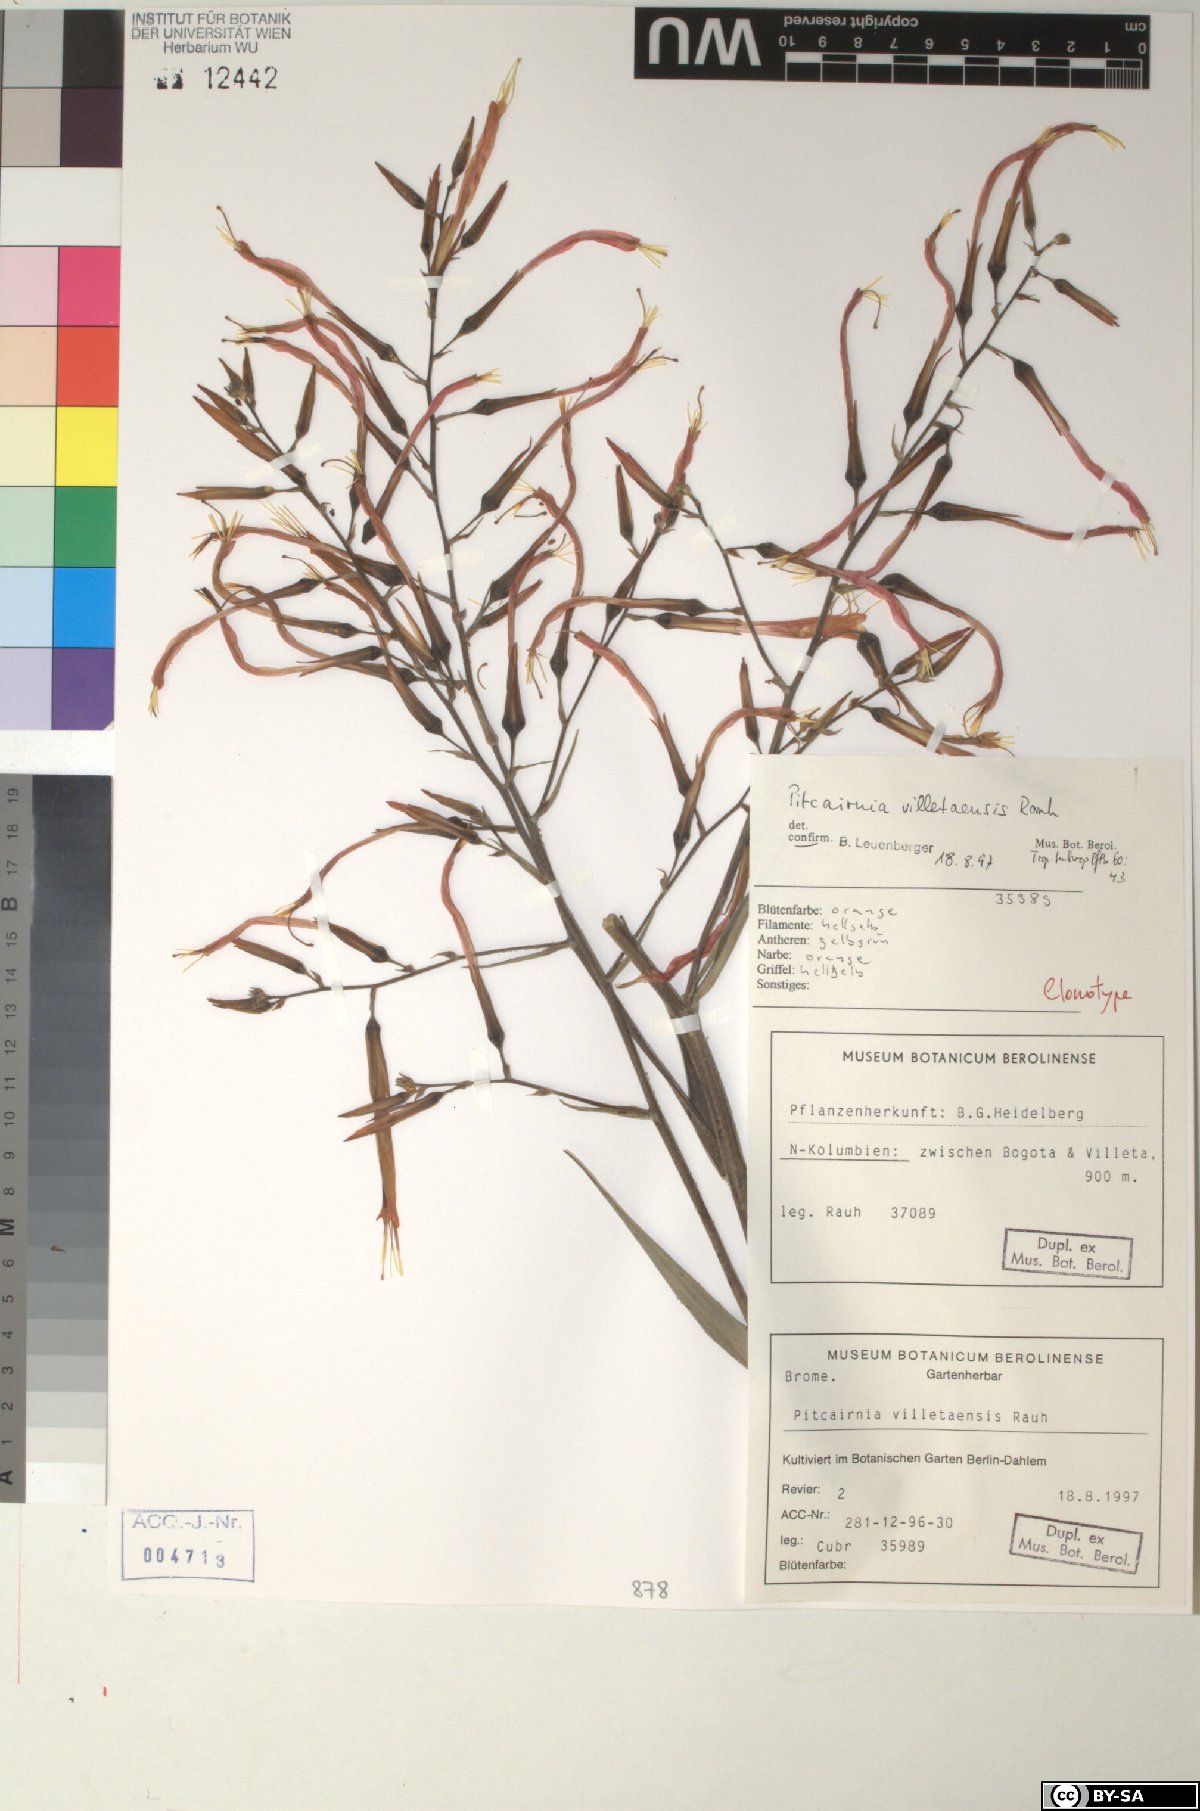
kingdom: Plantae
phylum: Tracheophyta
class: Liliopsida
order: Poales
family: Bromeliaceae
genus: Pitcairnia
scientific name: Pitcairnia villetaensis
